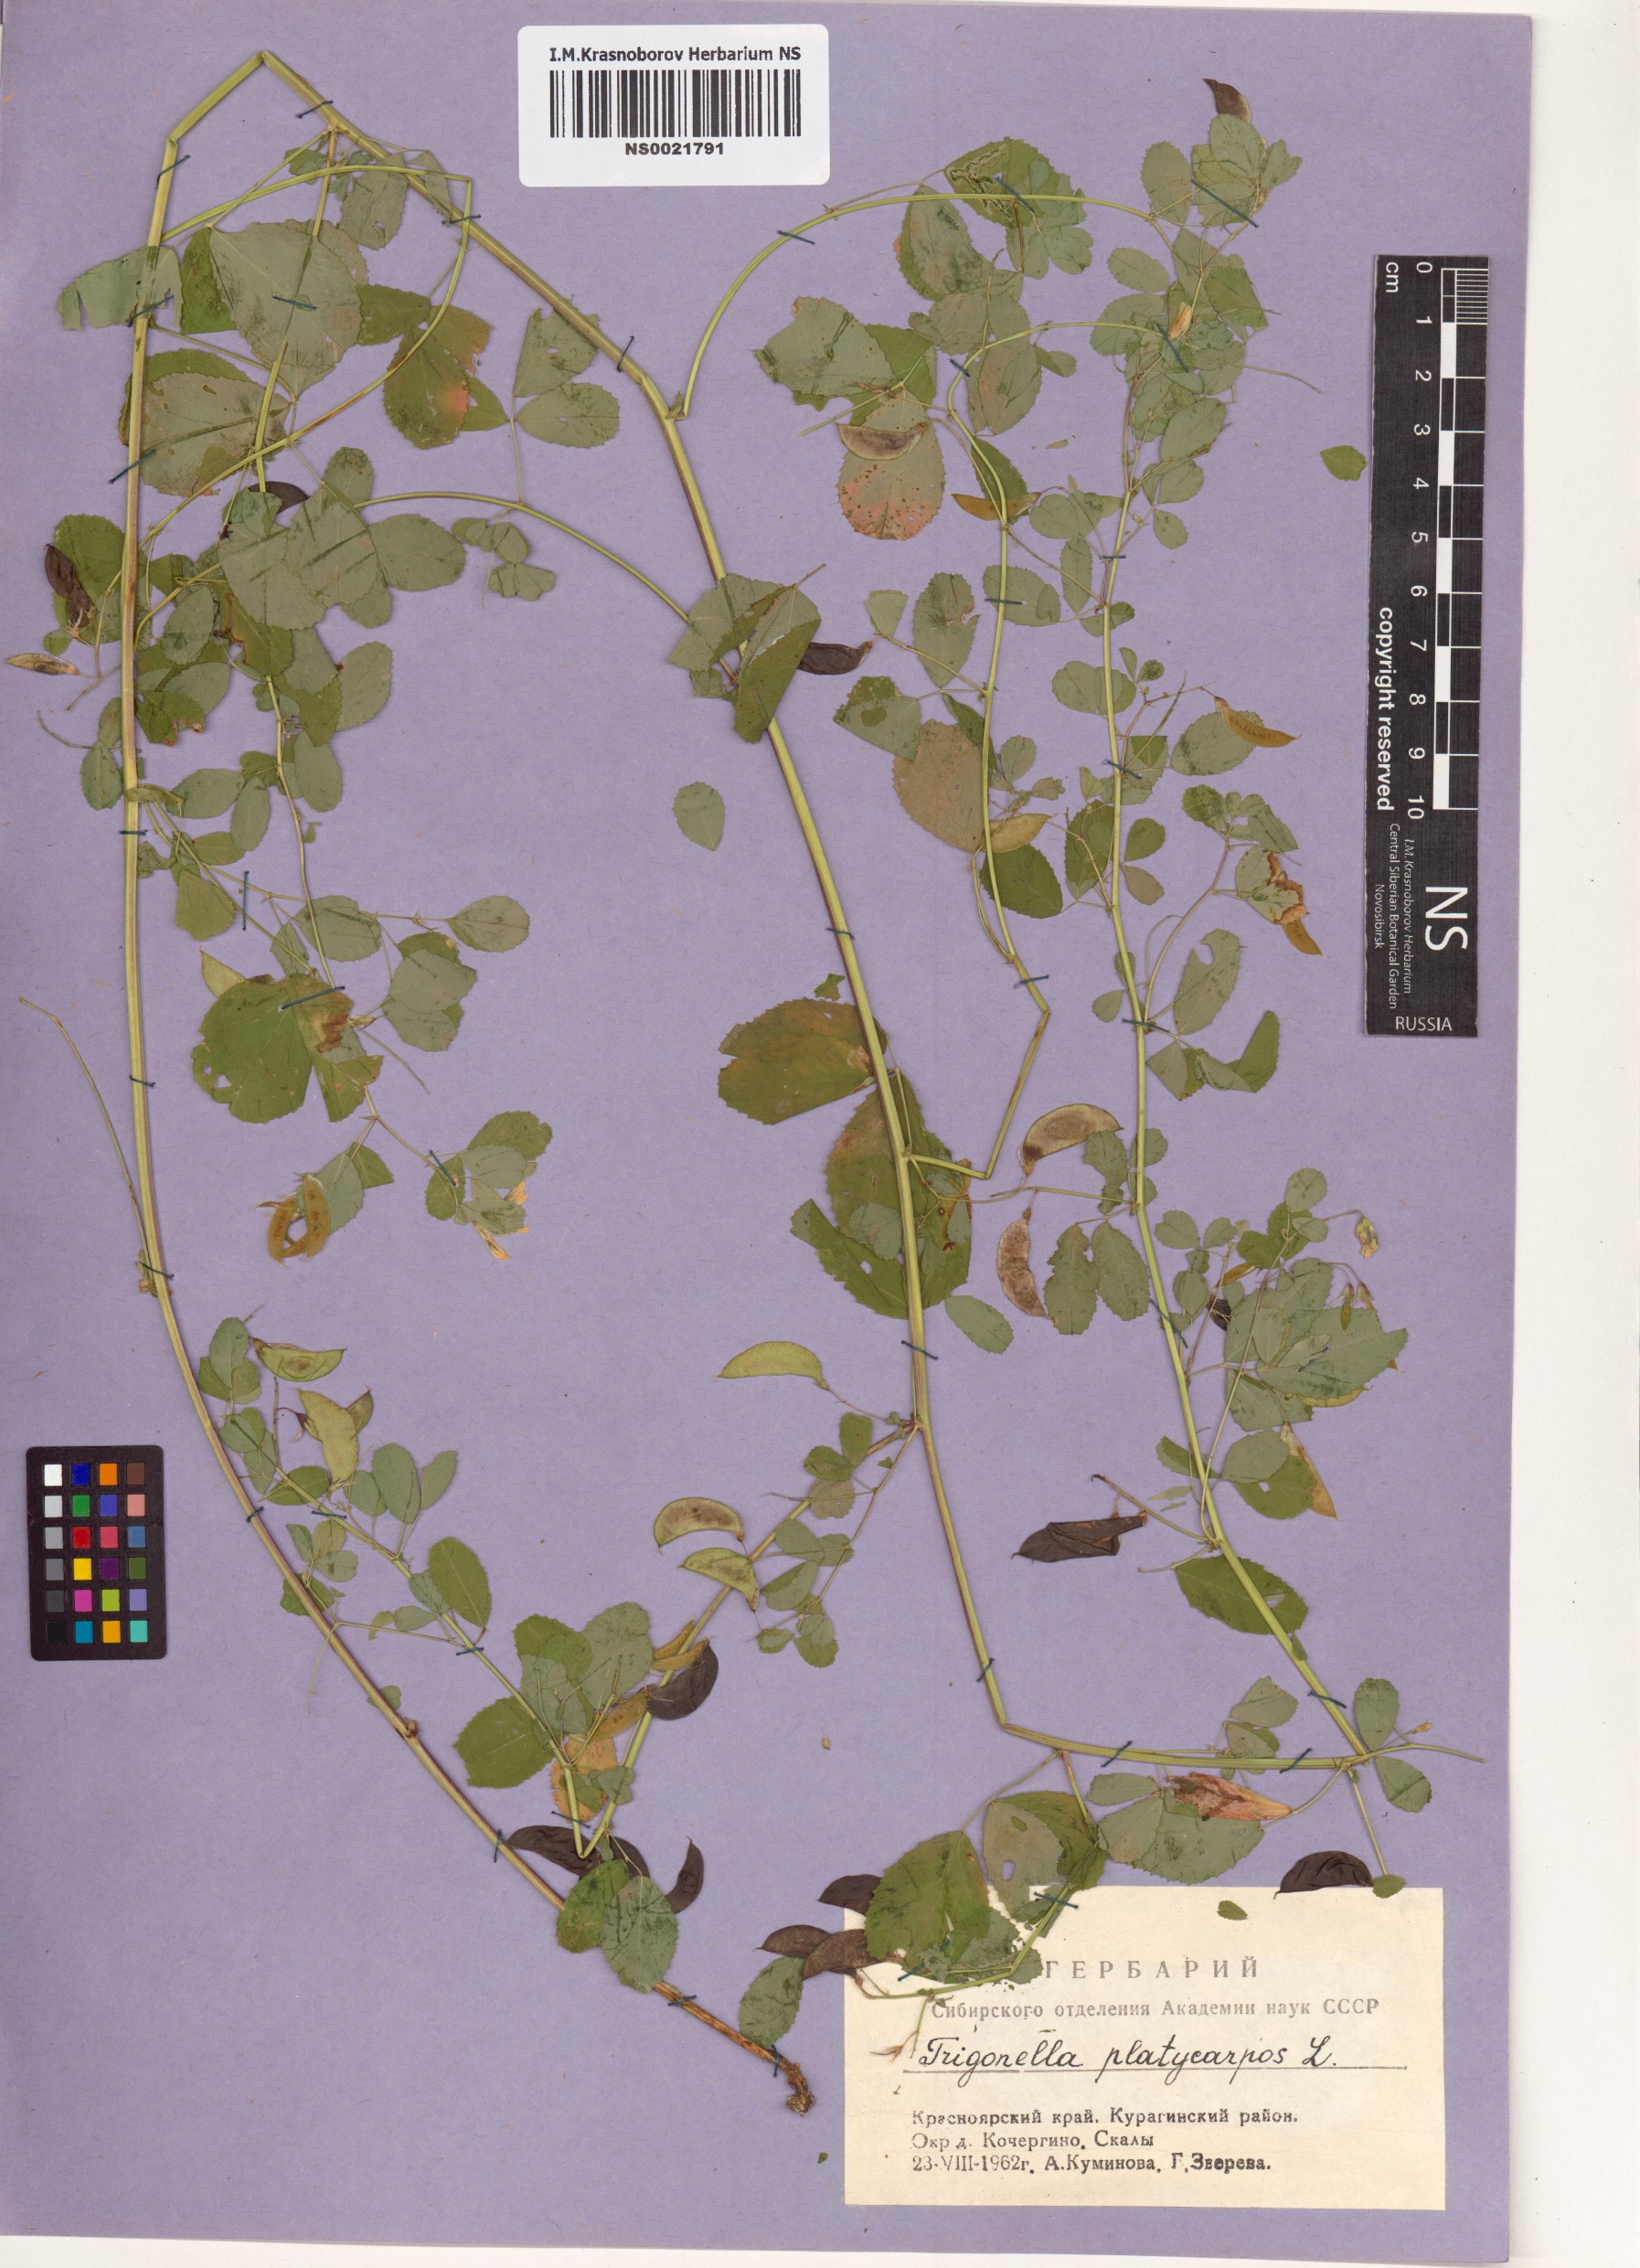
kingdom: Plantae
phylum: Tracheophyta
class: Magnoliopsida
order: Fabales
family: Fabaceae
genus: Medicago
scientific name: Medicago platycarpos
